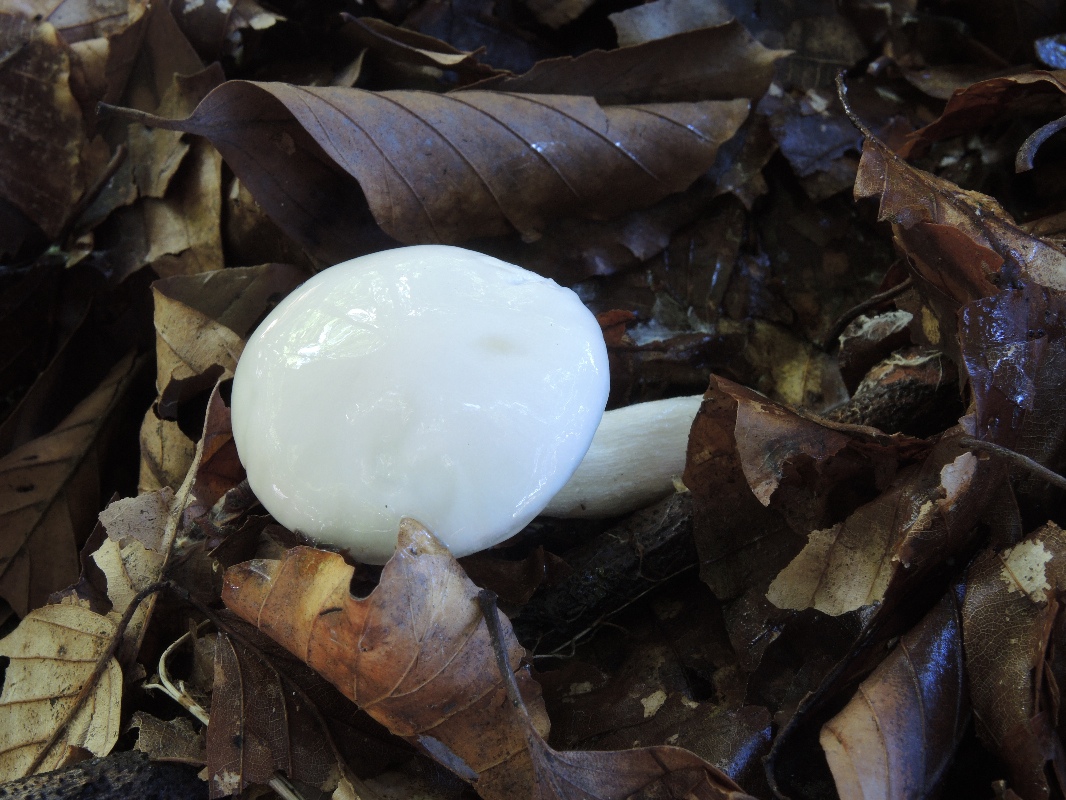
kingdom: Fungi
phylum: Basidiomycota
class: Agaricomycetes
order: Agaricales
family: Hygrophoraceae
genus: Hygrophorus
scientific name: Hygrophorus eburneus
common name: elfenbens-sneglehat
